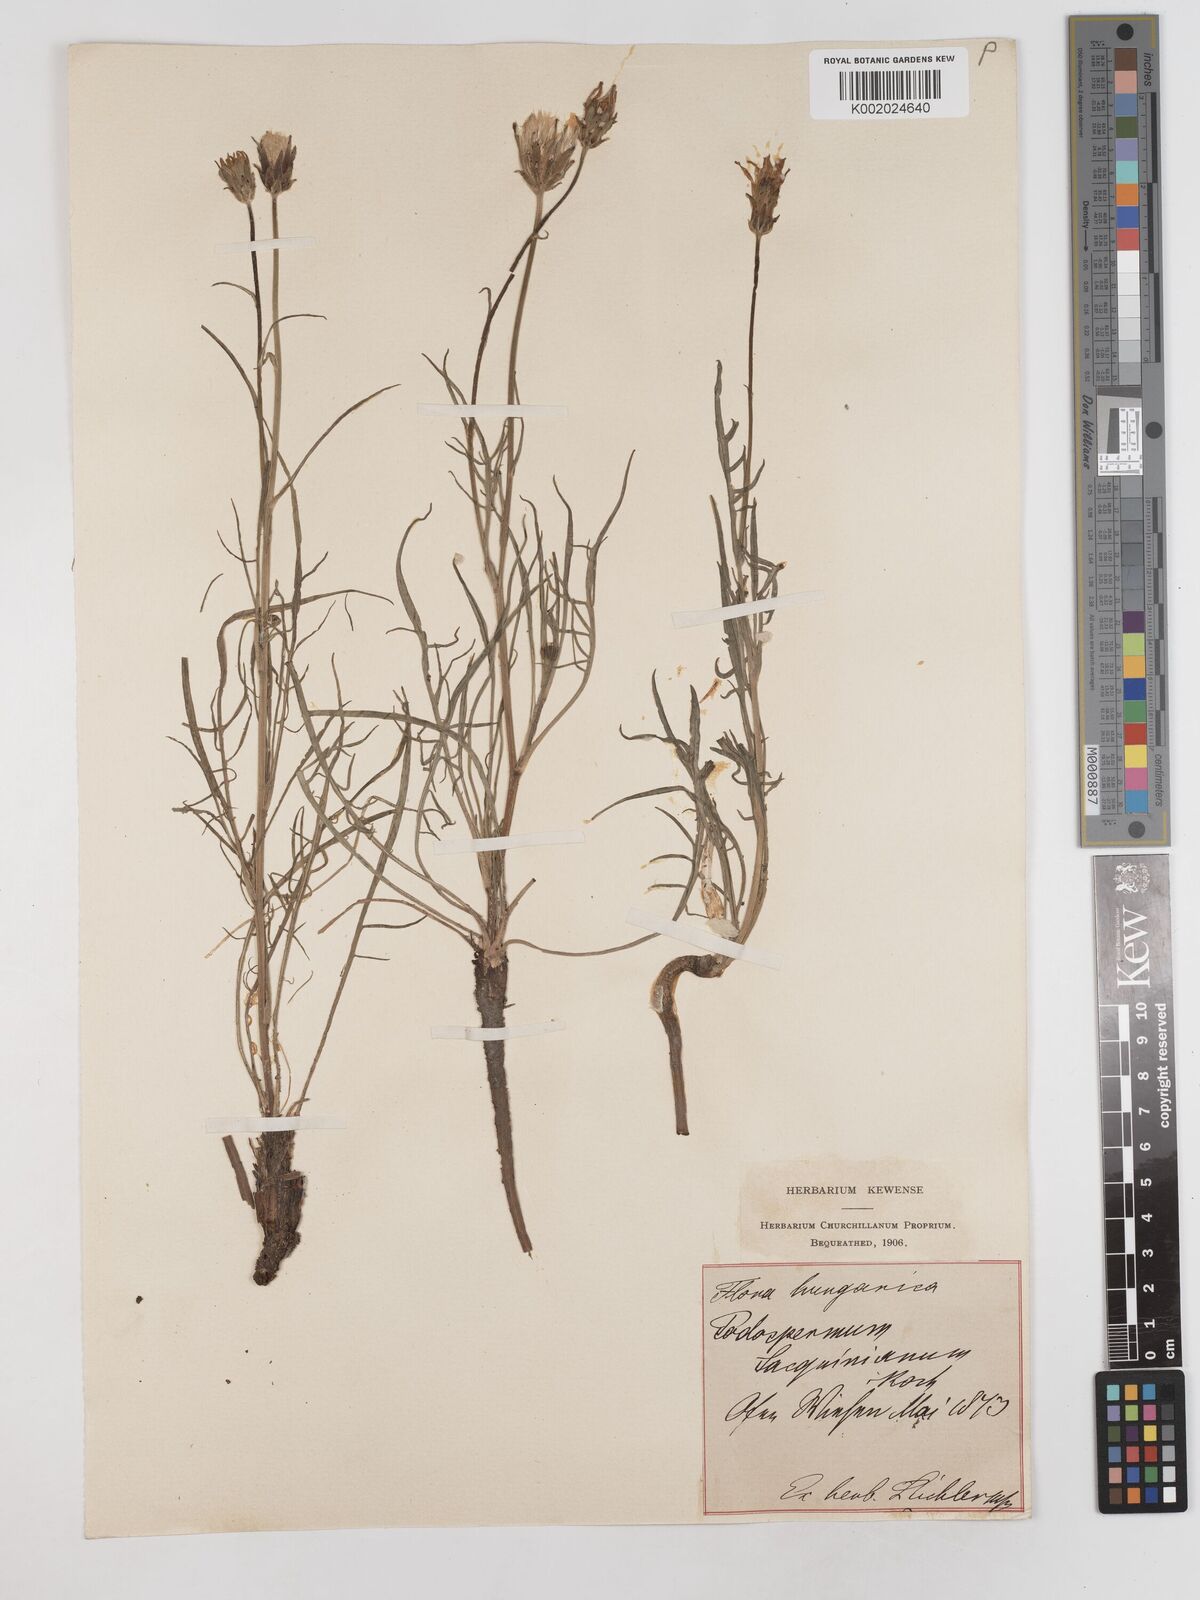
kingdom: Plantae
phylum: Tracheophyta
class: Magnoliopsida
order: Asterales
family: Asteraceae
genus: Scorzonera
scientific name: Scorzonera cana
